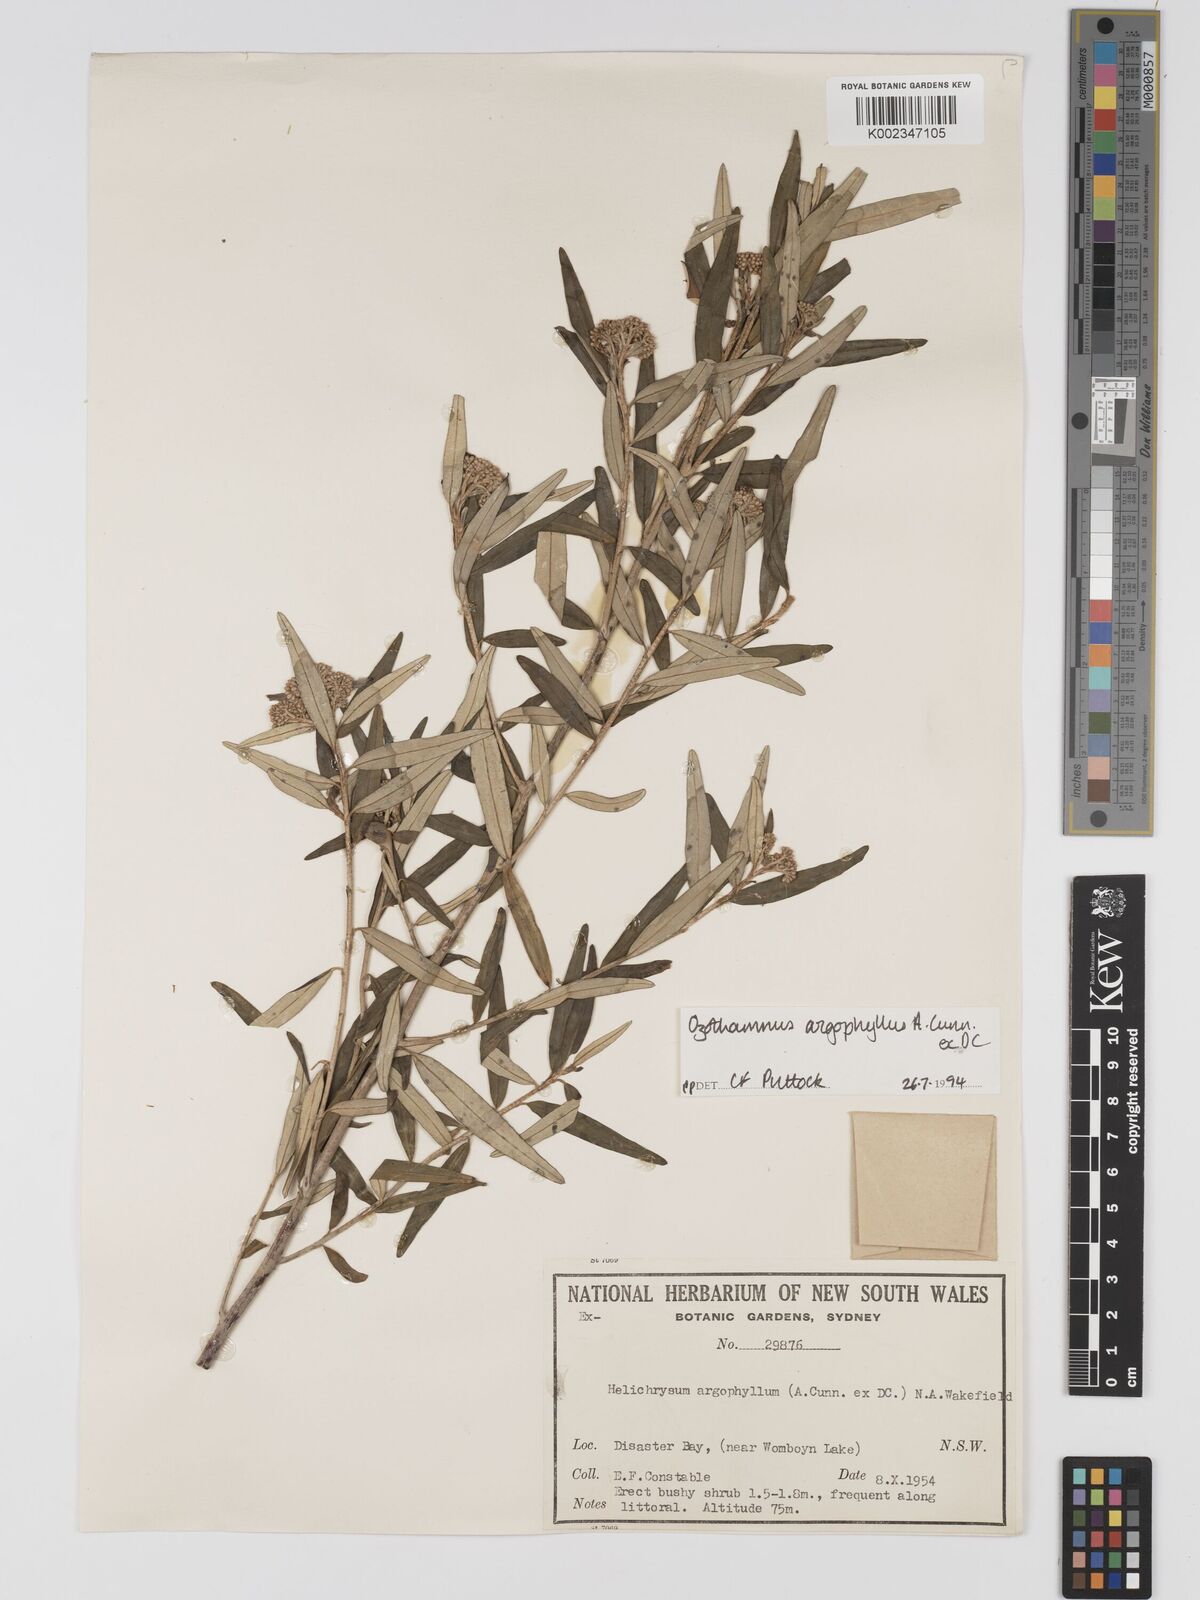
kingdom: Plantae
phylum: Tracheophyta
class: Magnoliopsida
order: Asterales
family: Asteraceae
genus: Ozothamnus
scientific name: Ozothamnus argophyllus
